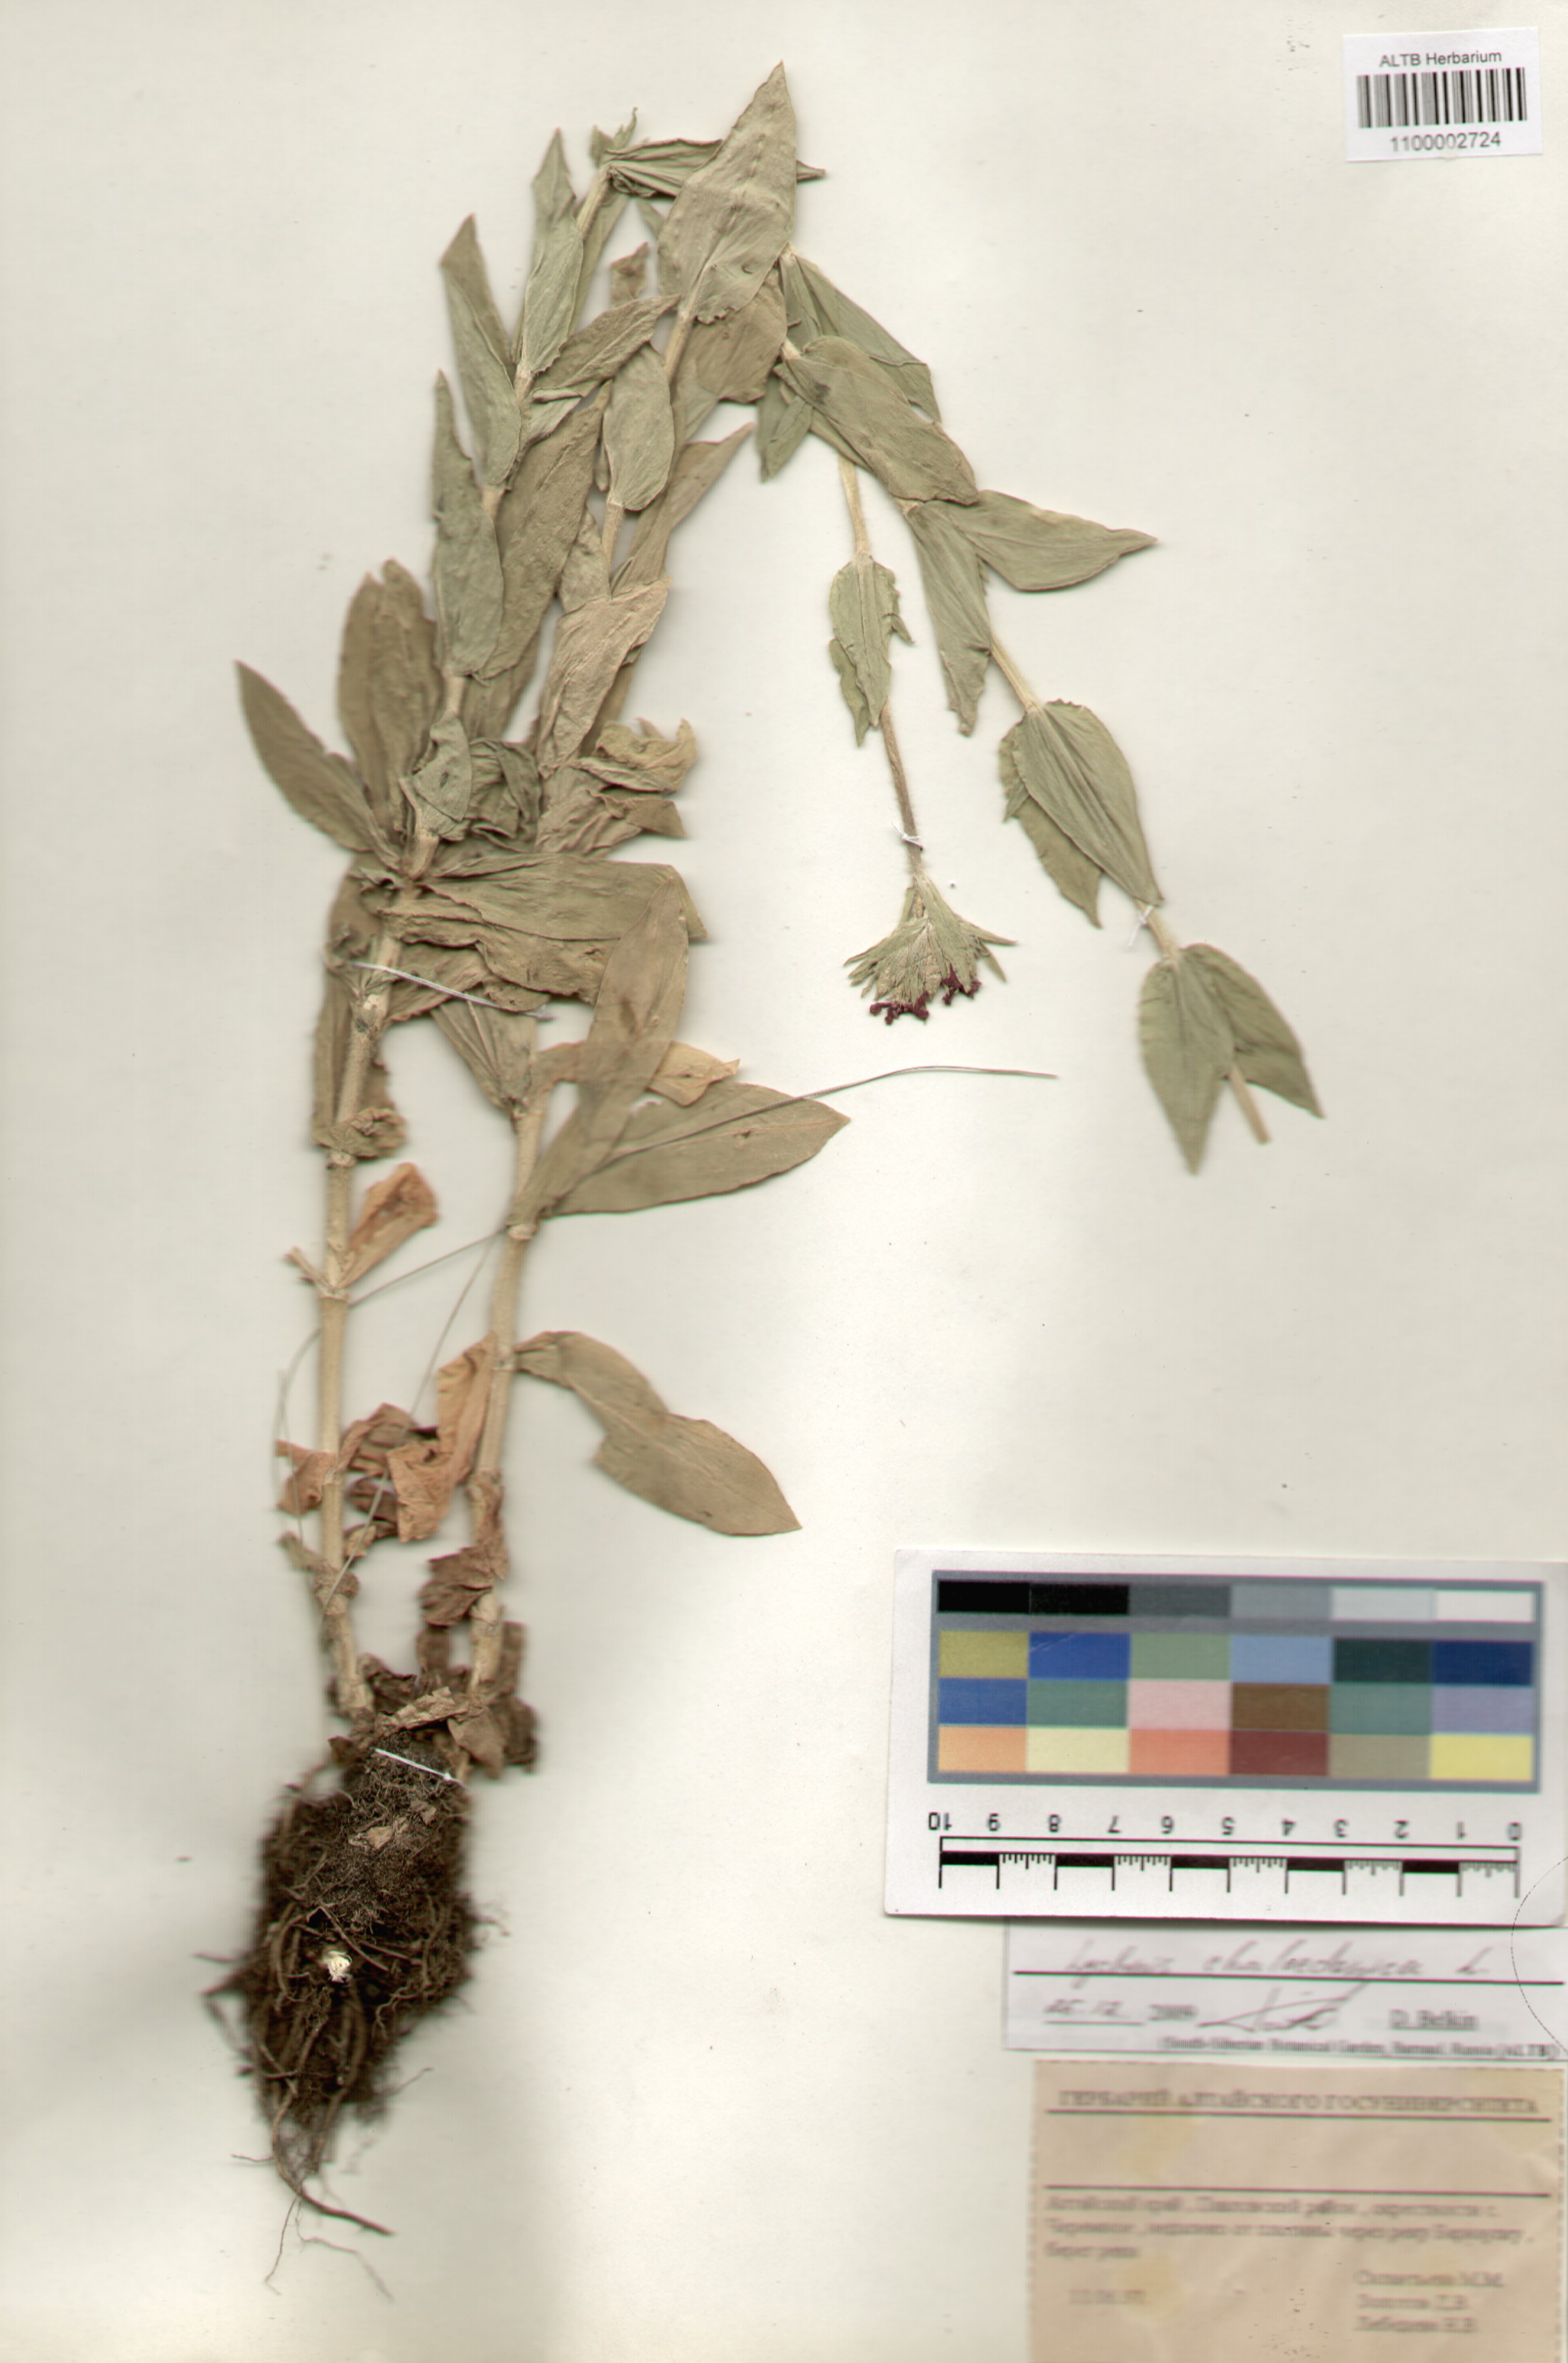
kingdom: Plantae
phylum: Tracheophyta
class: Magnoliopsida
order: Caryophyllales
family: Caryophyllaceae
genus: Silene
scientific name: Silene chalcedonica
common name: Maltese-cross
